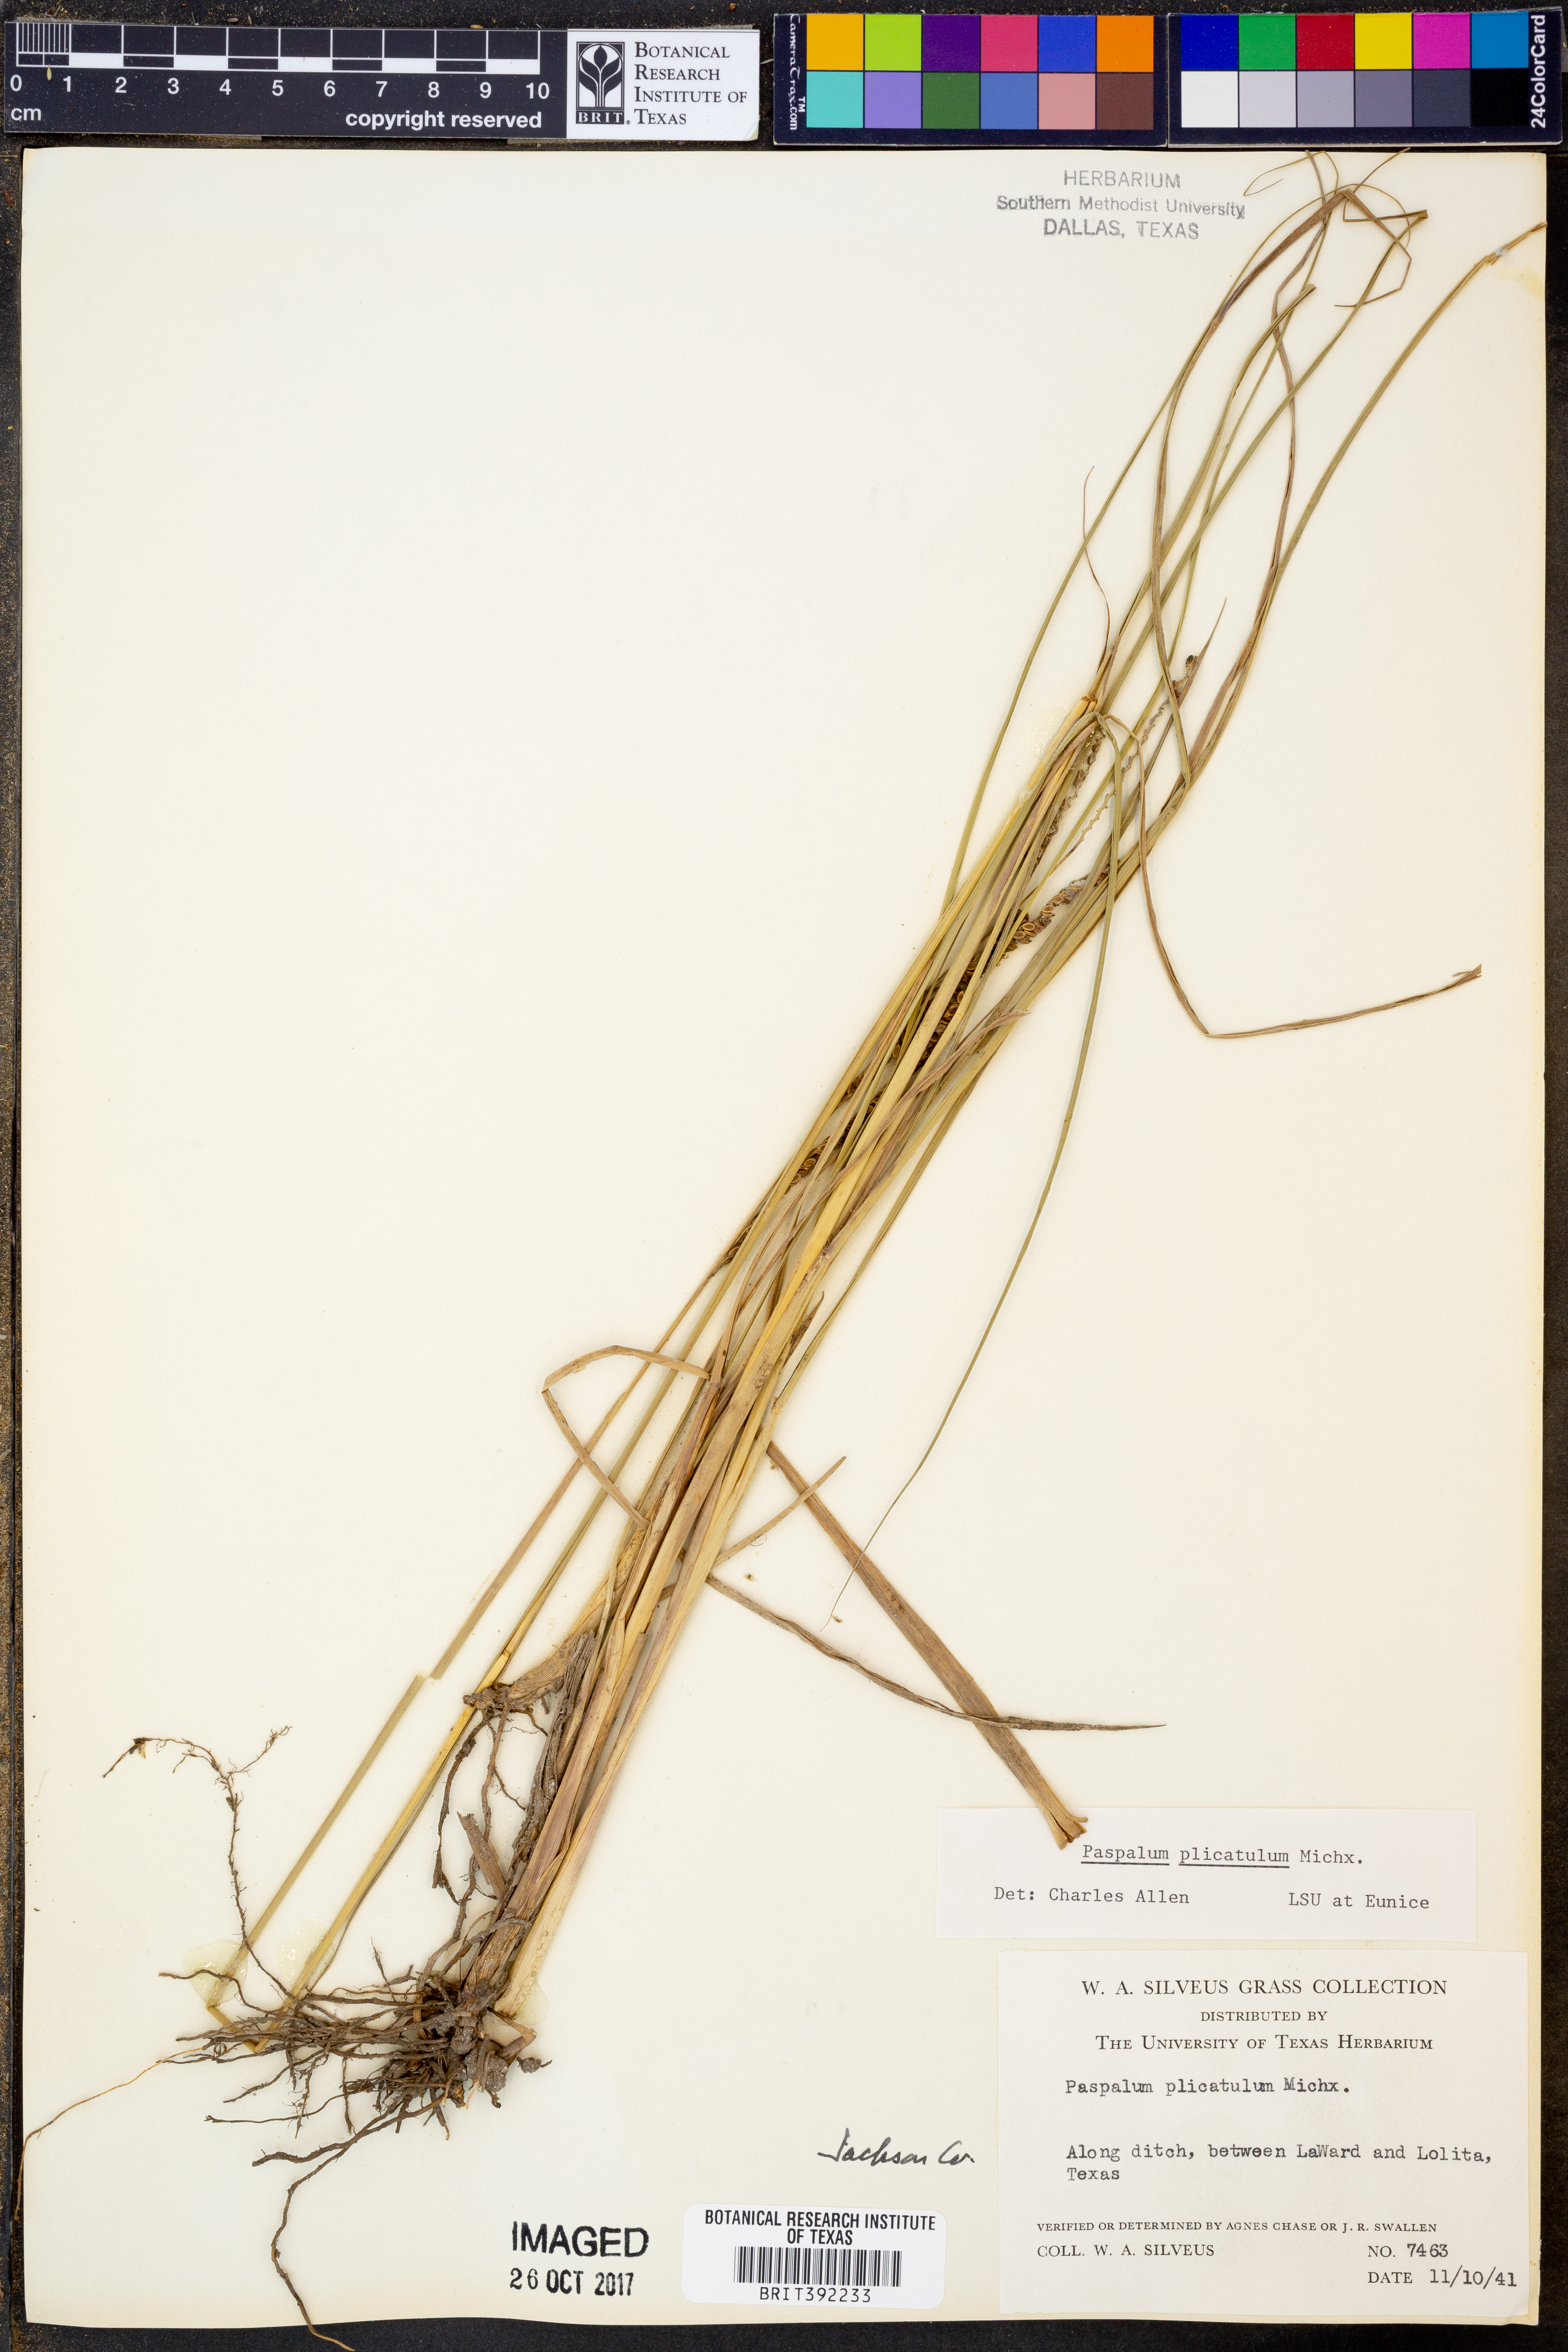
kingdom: Plantae
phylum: Tracheophyta
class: Liliopsida
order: Poales
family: Poaceae
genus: Paspalum
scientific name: Paspalum plicatulum
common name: Top paspalum
